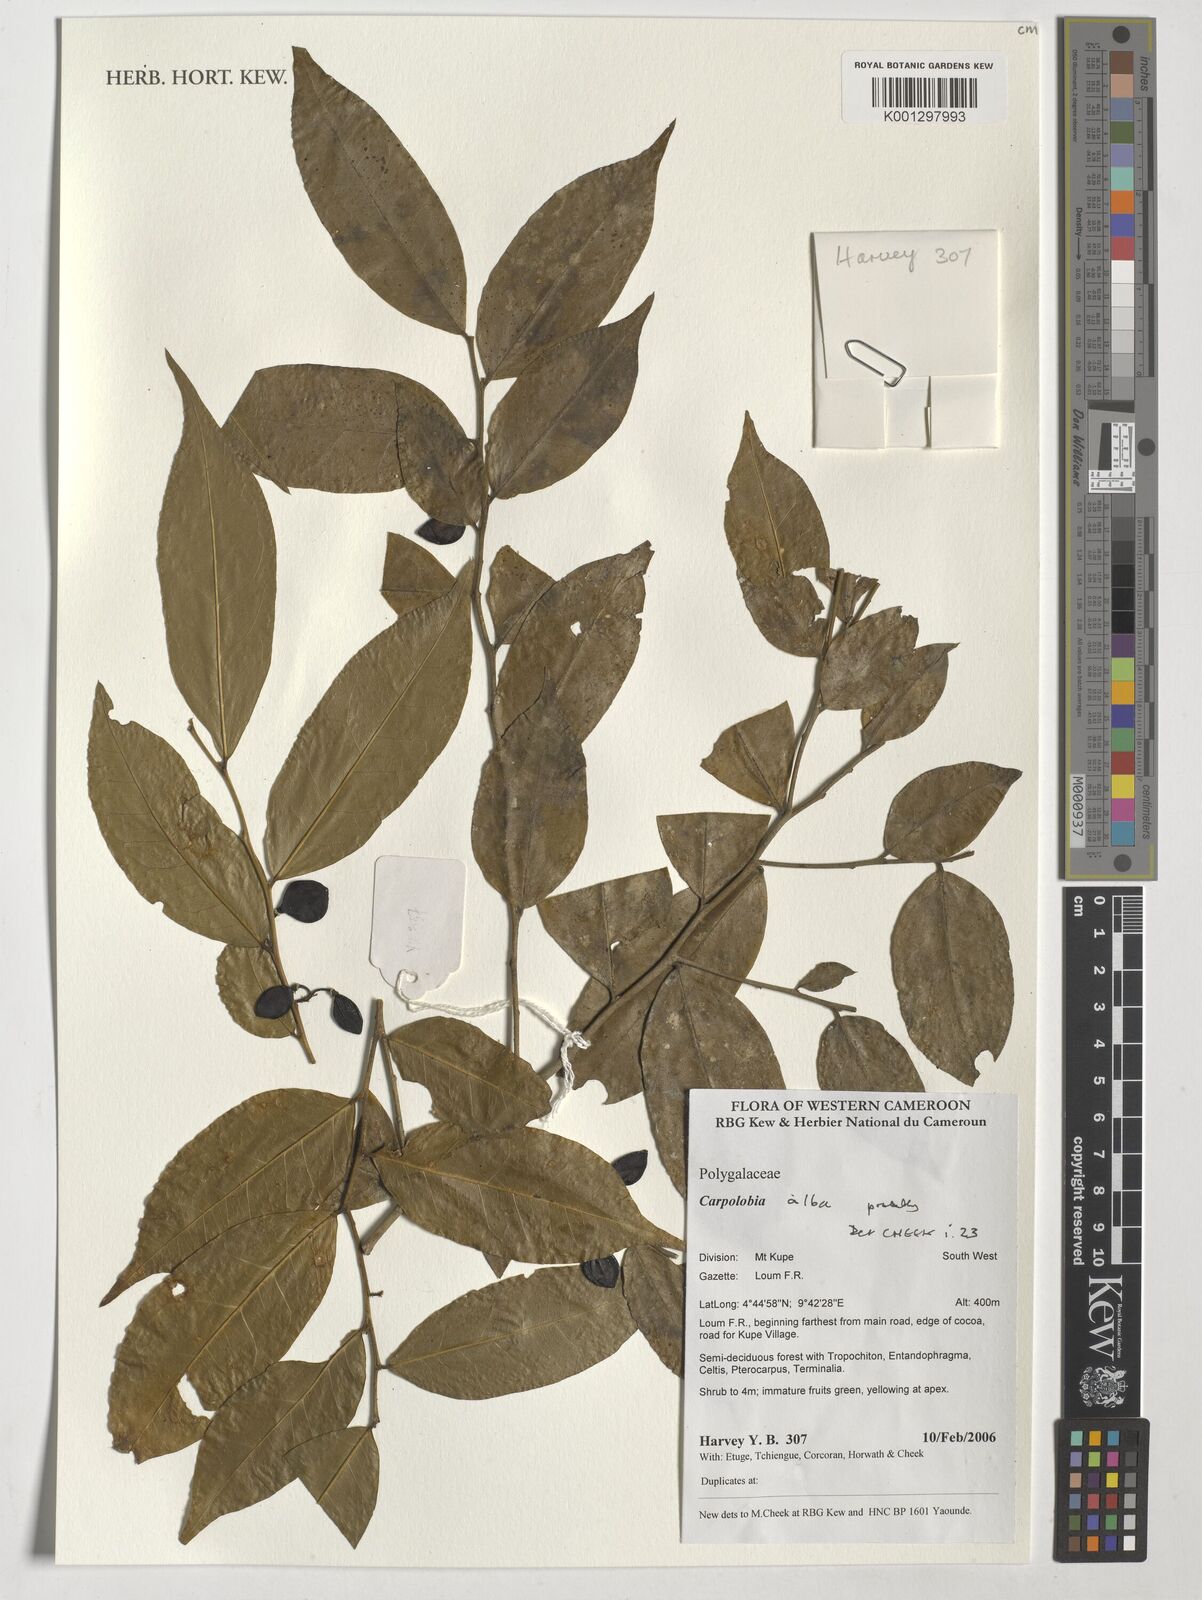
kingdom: Plantae
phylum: Tracheophyta
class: Magnoliopsida
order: Fabales
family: Polygalaceae
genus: Carpolobia
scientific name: Carpolobia alba
